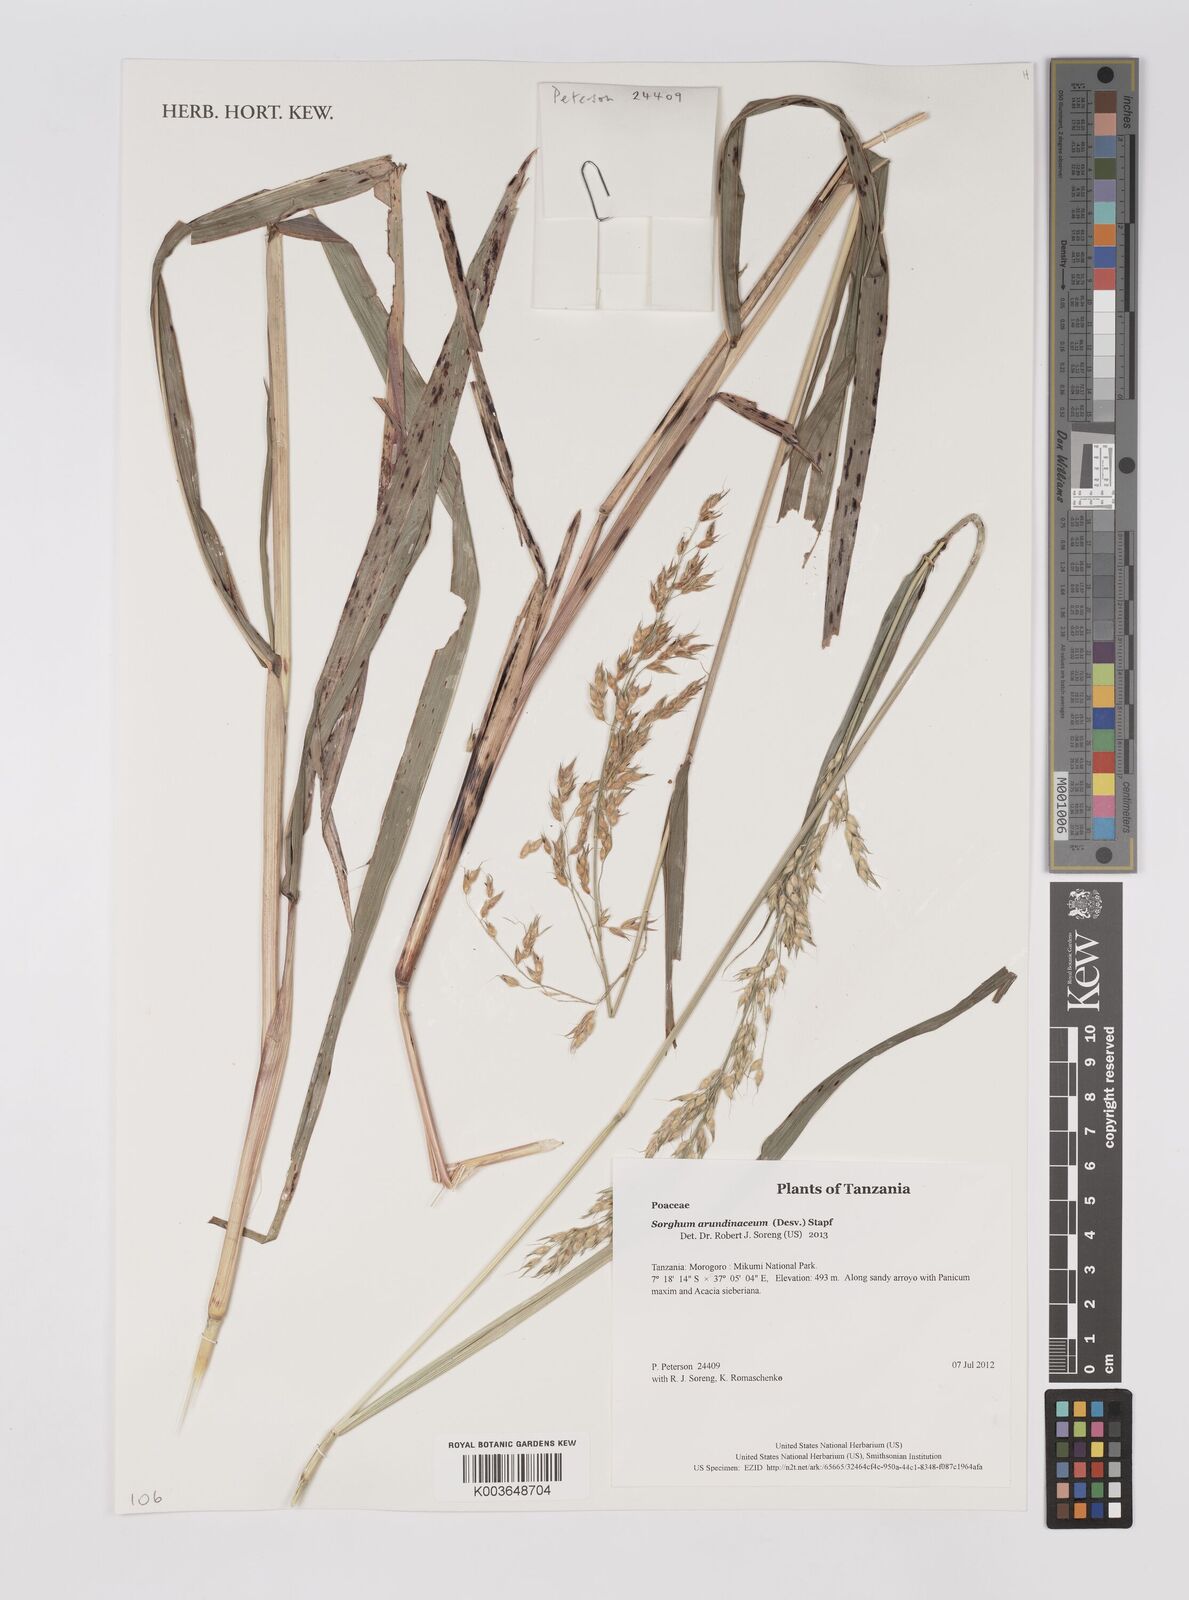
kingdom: Plantae
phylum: Tracheophyta
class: Liliopsida
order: Poales
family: Poaceae
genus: Sorghum
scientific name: Sorghum arundinaceum
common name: Sorghum
